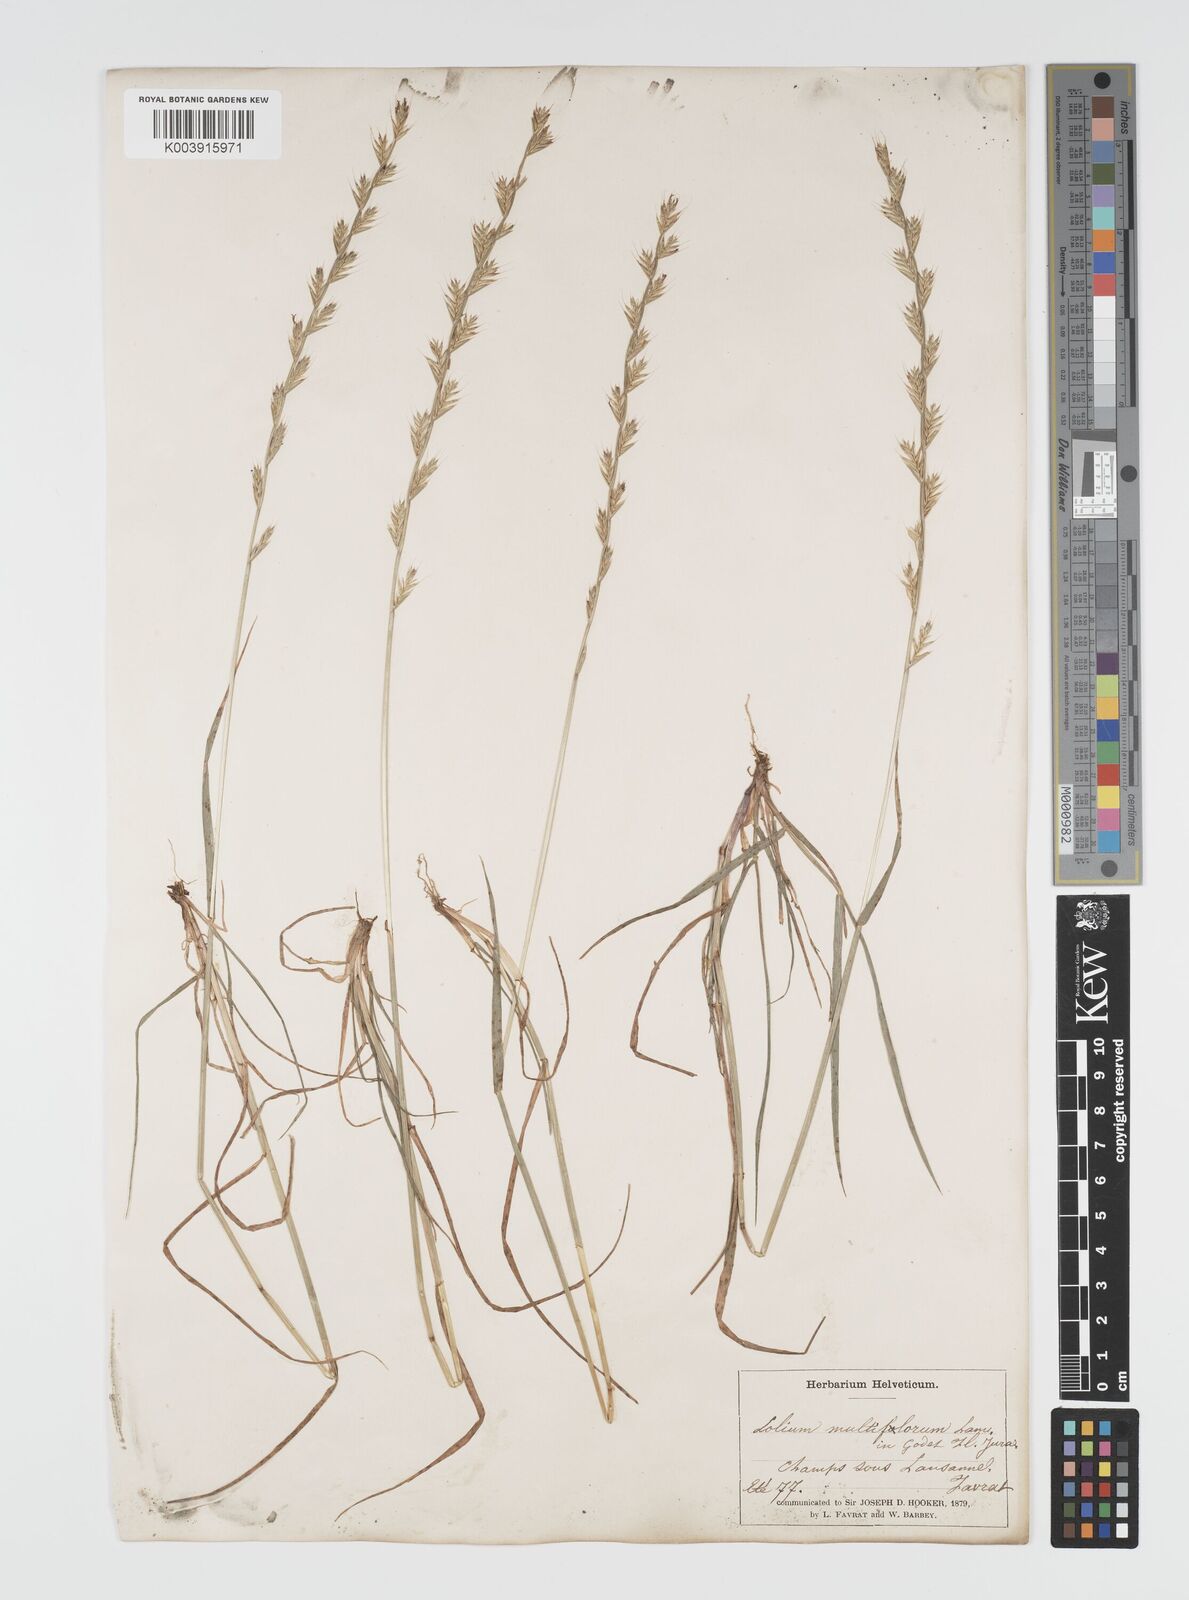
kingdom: Plantae
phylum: Tracheophyta
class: Liliopsida
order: Poales
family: Poaceae
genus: Lolium
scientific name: Lolium multiflorum
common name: Annual ryegrass
